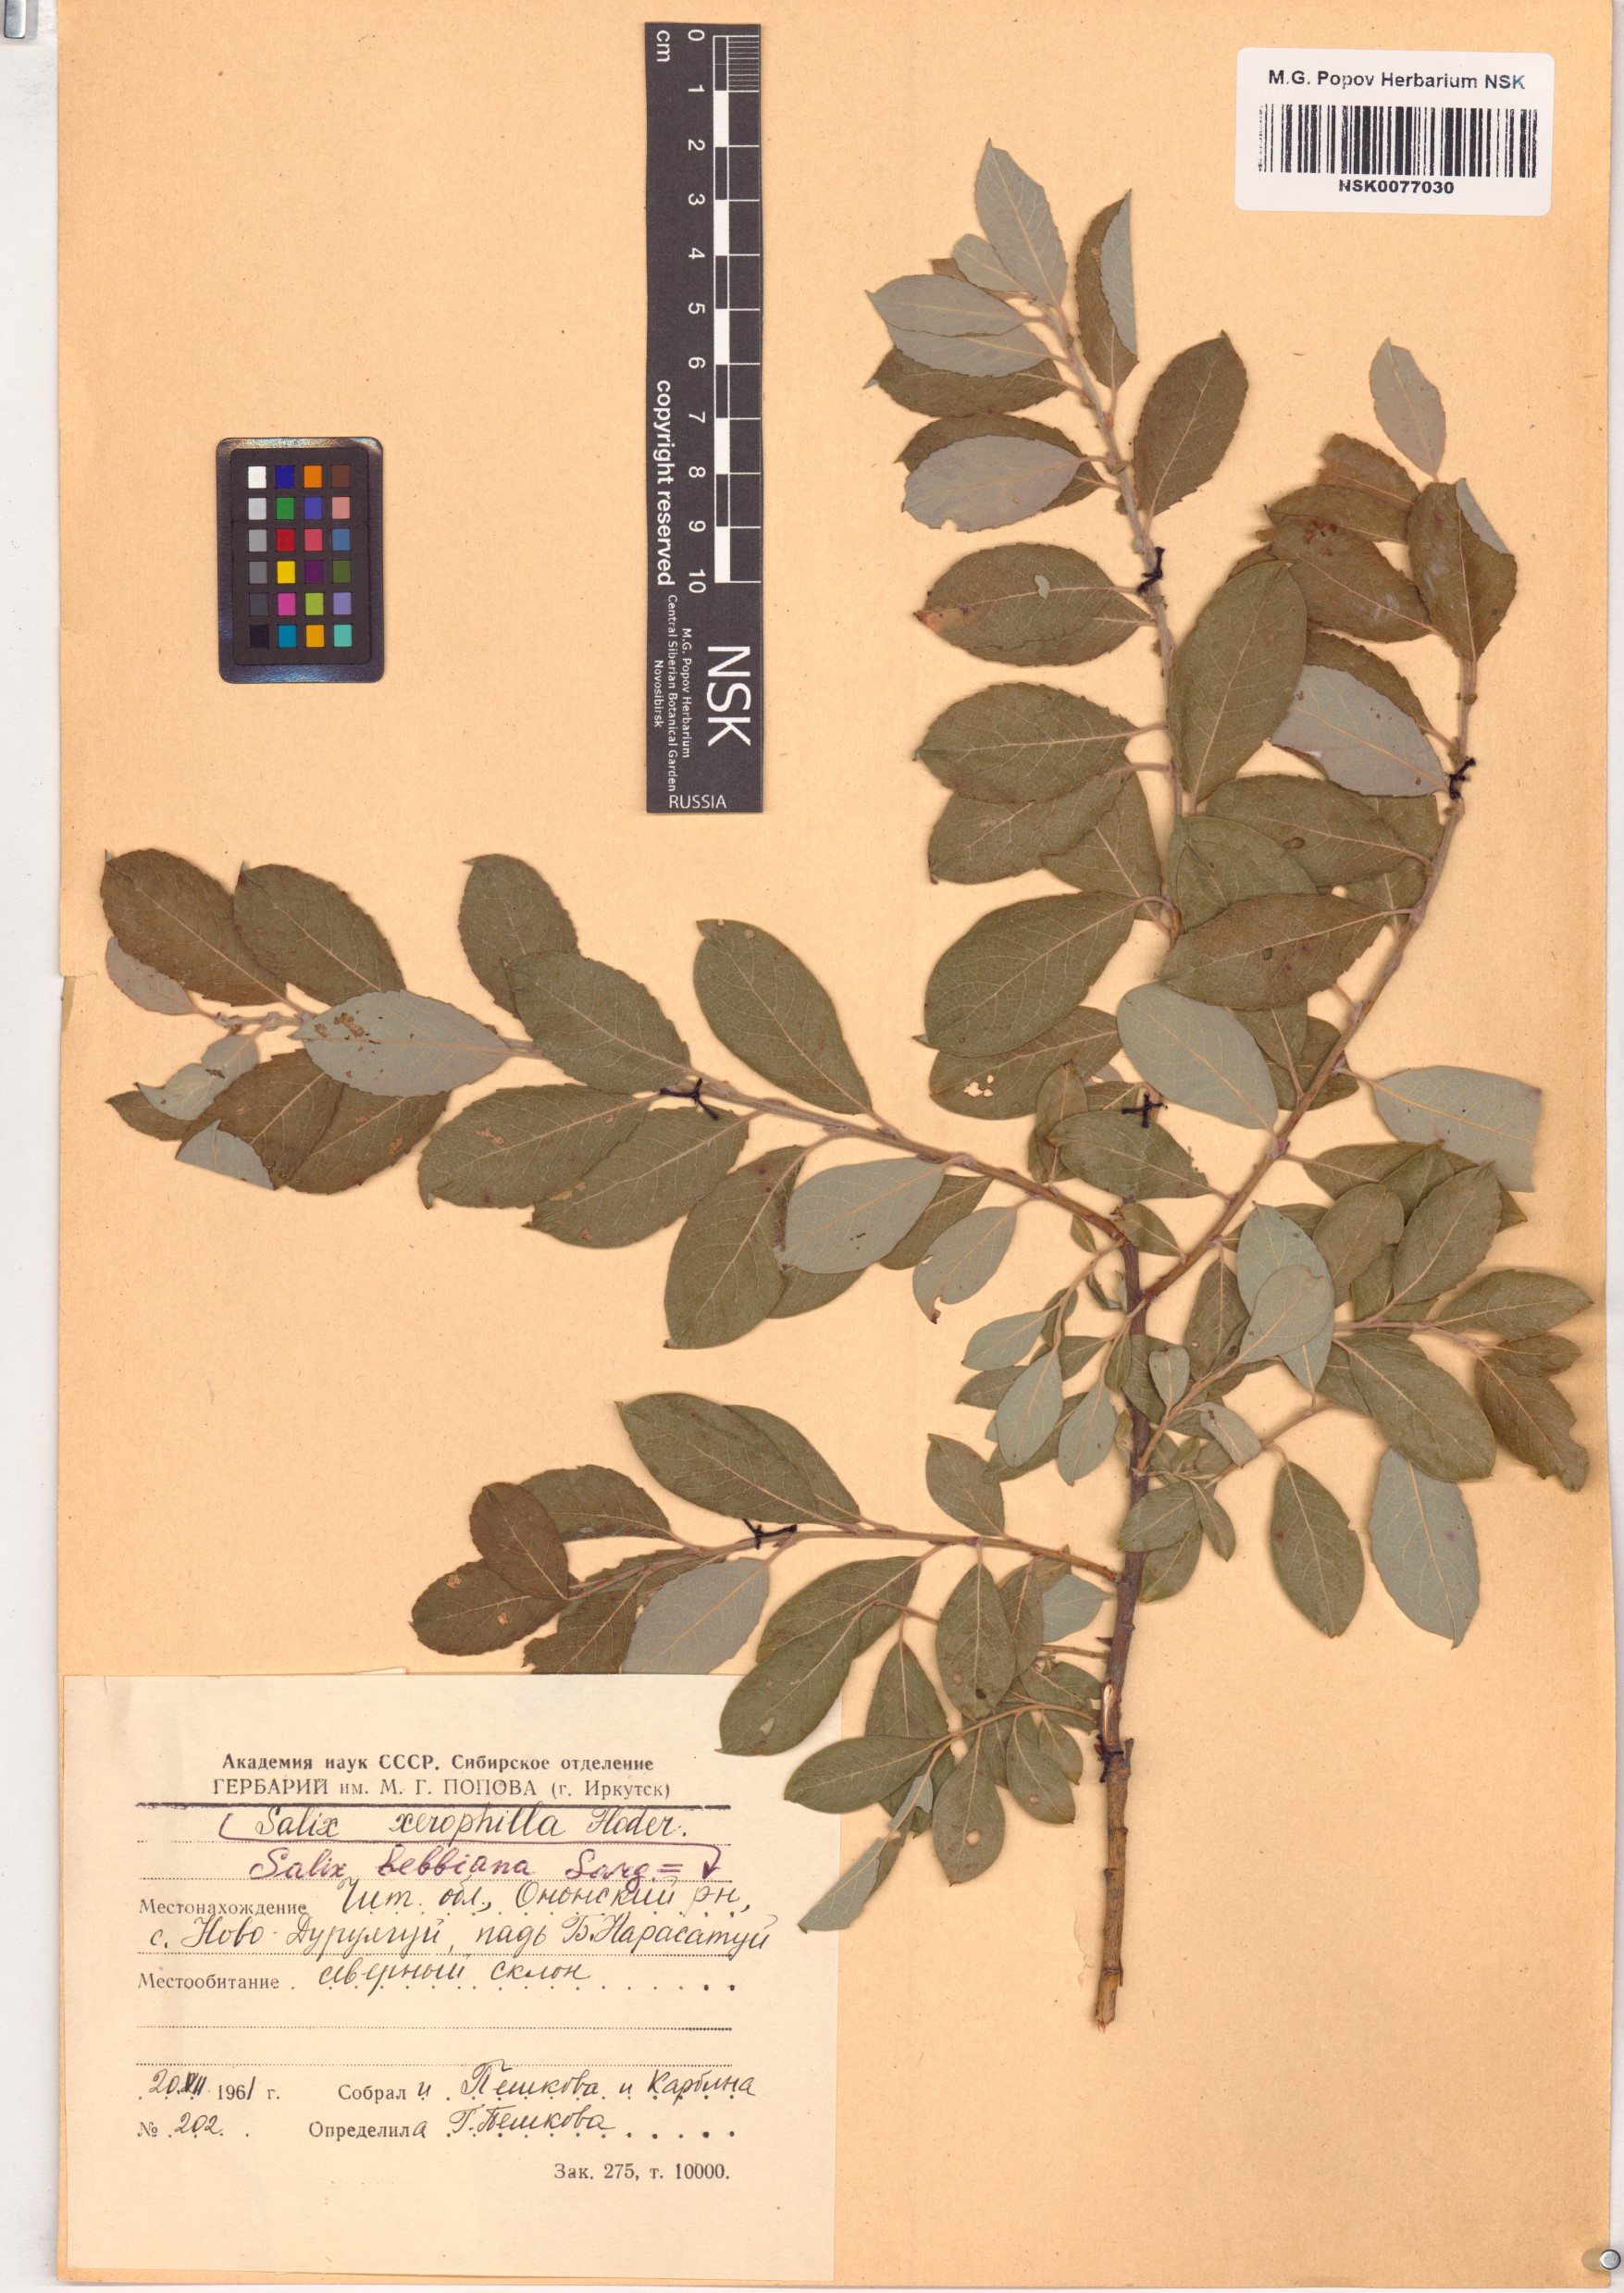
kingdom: Plantae
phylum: Tracheophyta
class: Magnoliopsida
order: Malpighiales
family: Salicaceae
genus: Salix
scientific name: Salix bebbiana
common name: Bebb's willow
